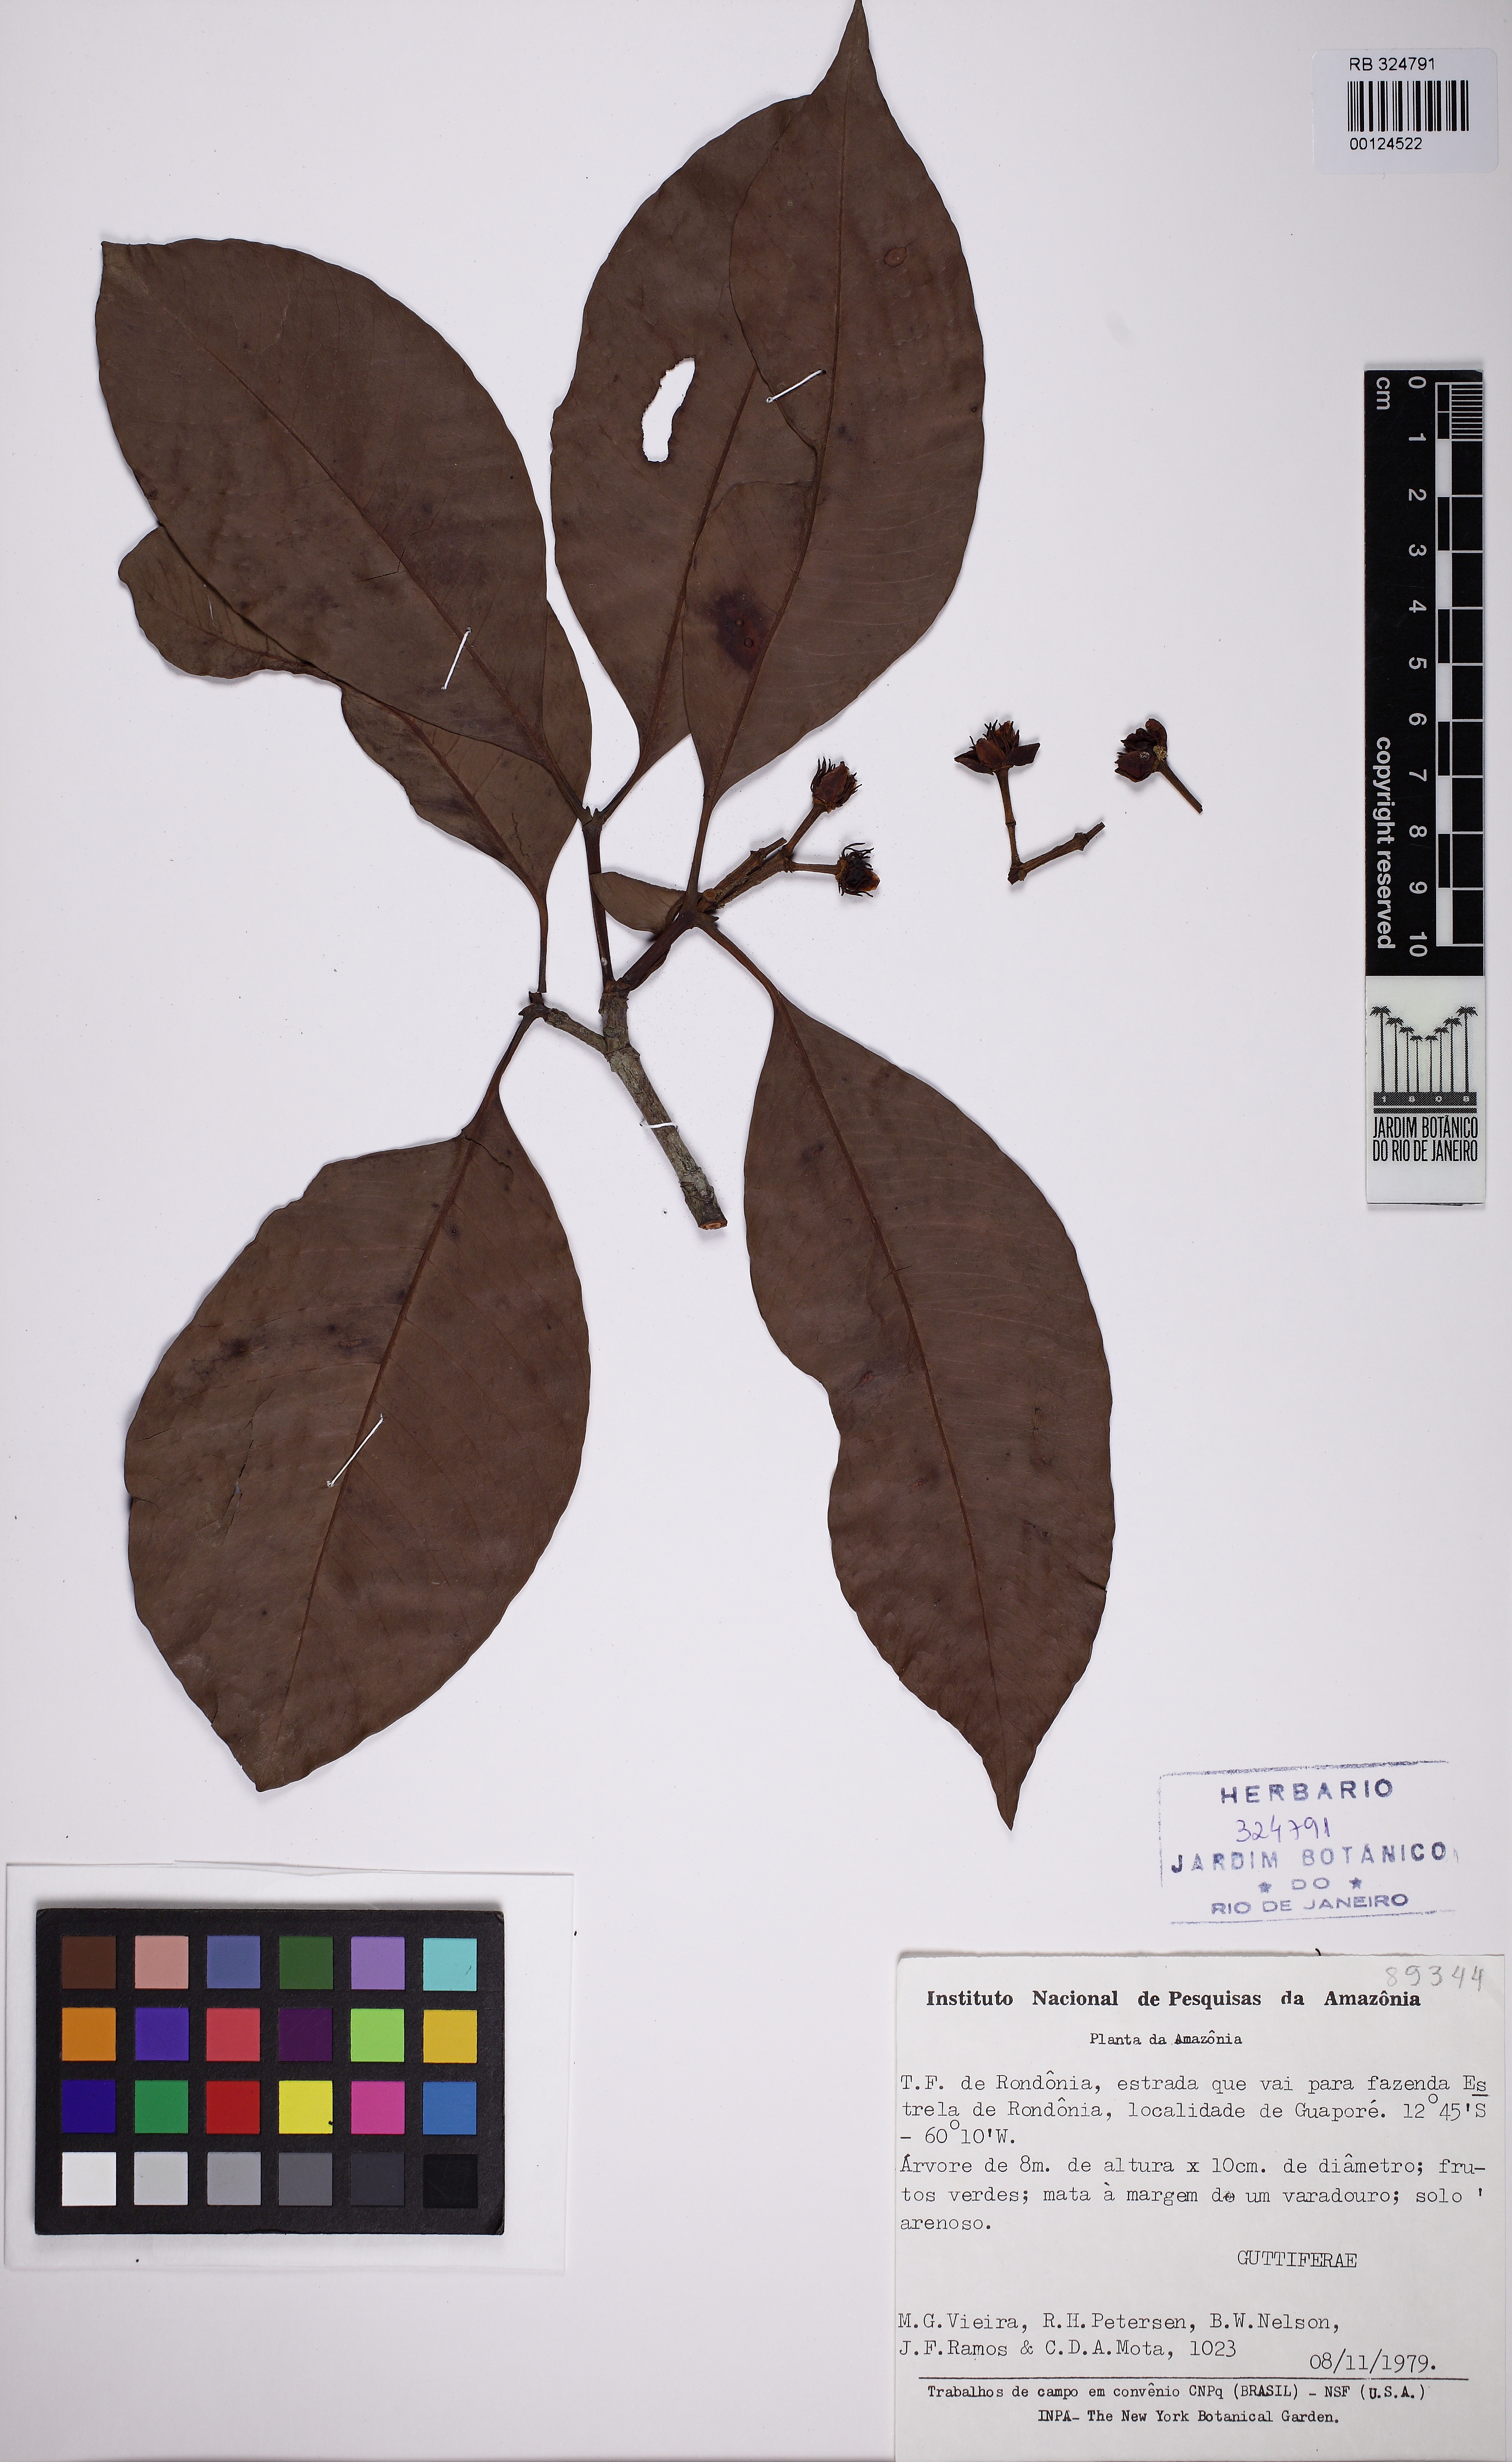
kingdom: Plantae
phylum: Tracheophyta
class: Magnoliopsida
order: Malpighiales
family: Clusiaceae
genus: Tovomita
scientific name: Tovomita
